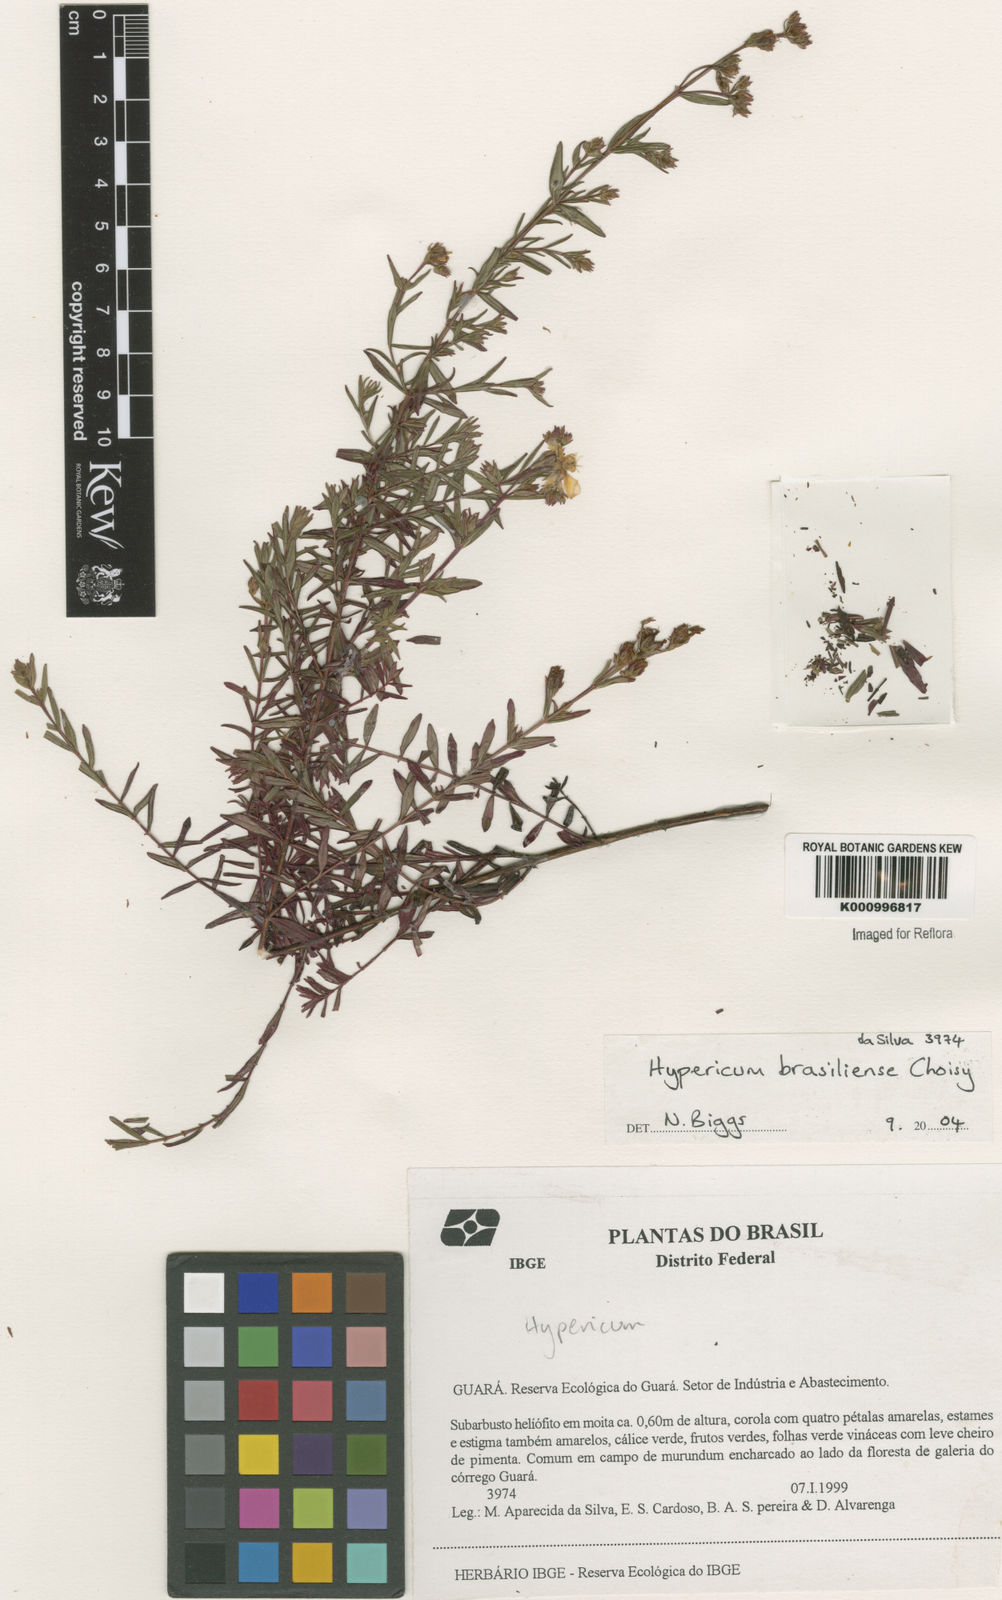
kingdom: Plantae
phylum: Tracheophyta
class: Magnoliopsida
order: Malpighiales
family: Hypericaceae
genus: Hypericum
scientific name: Hypericum brasiliense
